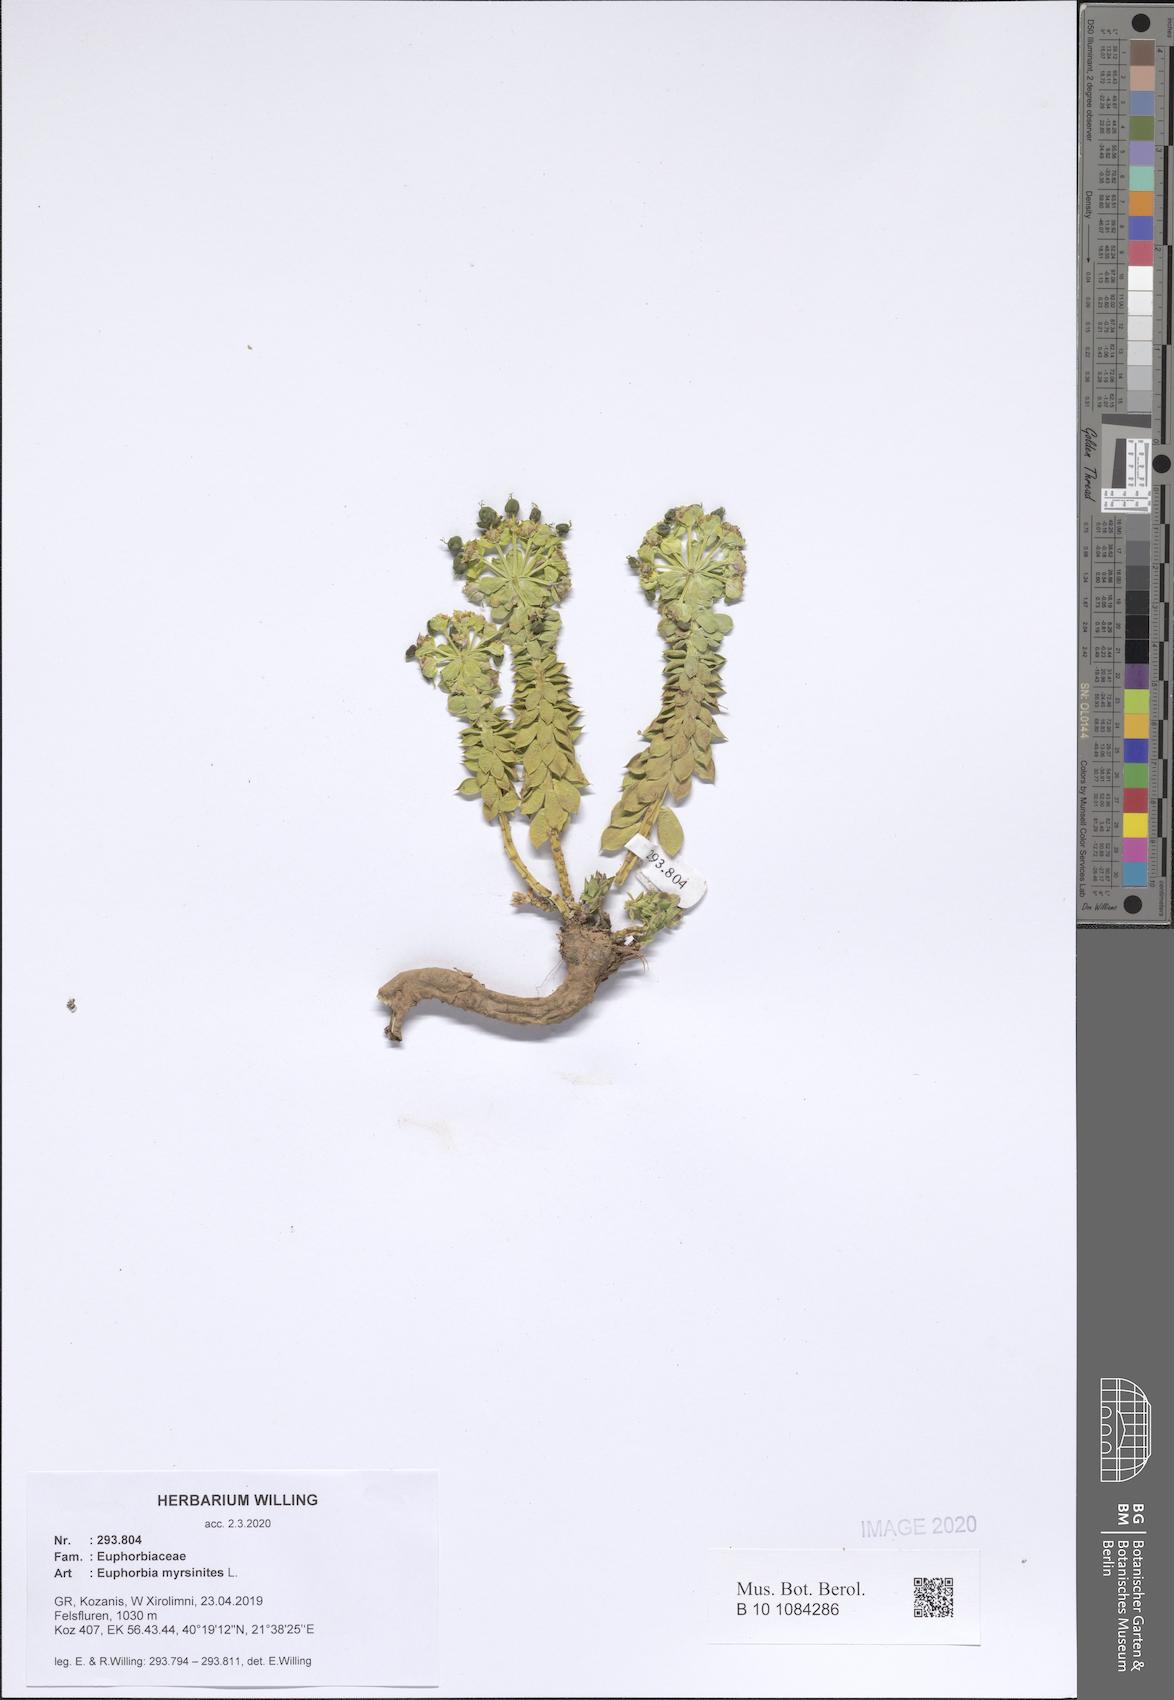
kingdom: Plantae
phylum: Tracheophyta
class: Magnoliopsida
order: Malpighiales
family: Euphorbiaceae
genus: Euphorbia
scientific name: Euphorbia myrsinites
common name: Myrtle spurge
